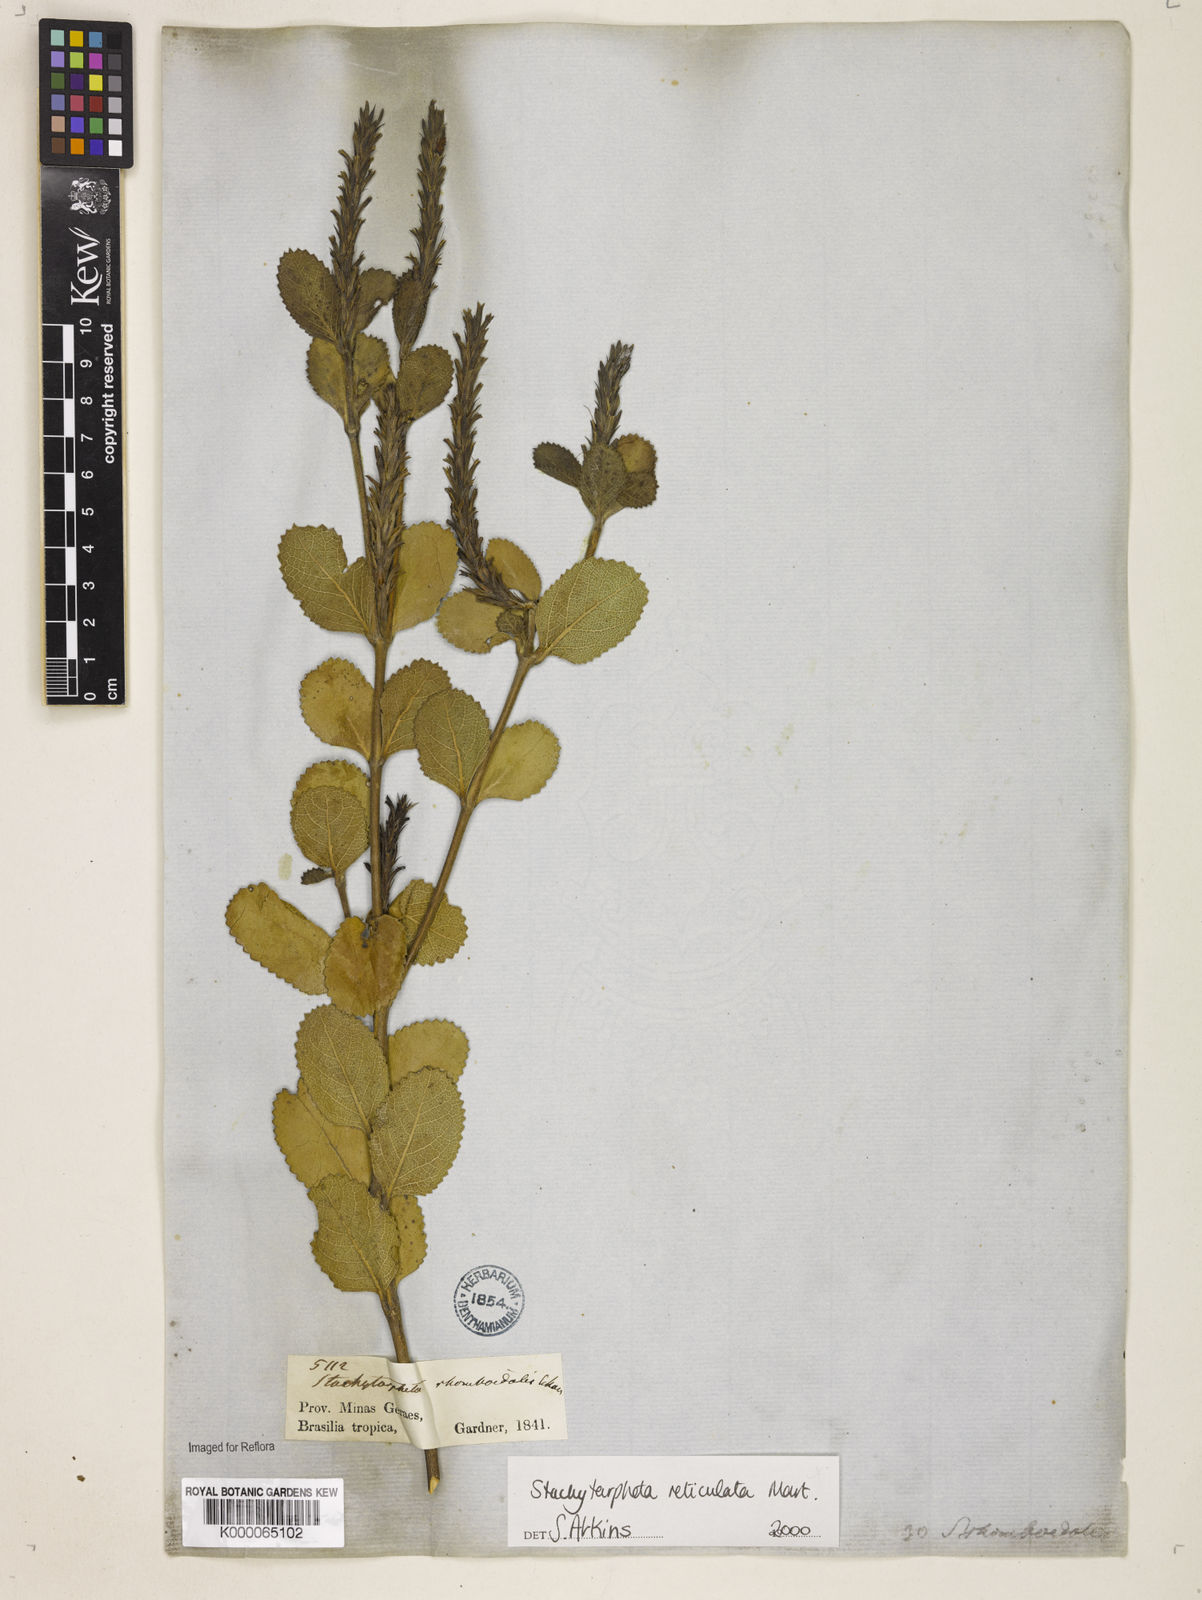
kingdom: Plantae
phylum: Tracheophyta
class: Magnoliopsida
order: Lamiales
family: Verbenaceae
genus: Stachytarpheta
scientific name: Stachytarpheta
